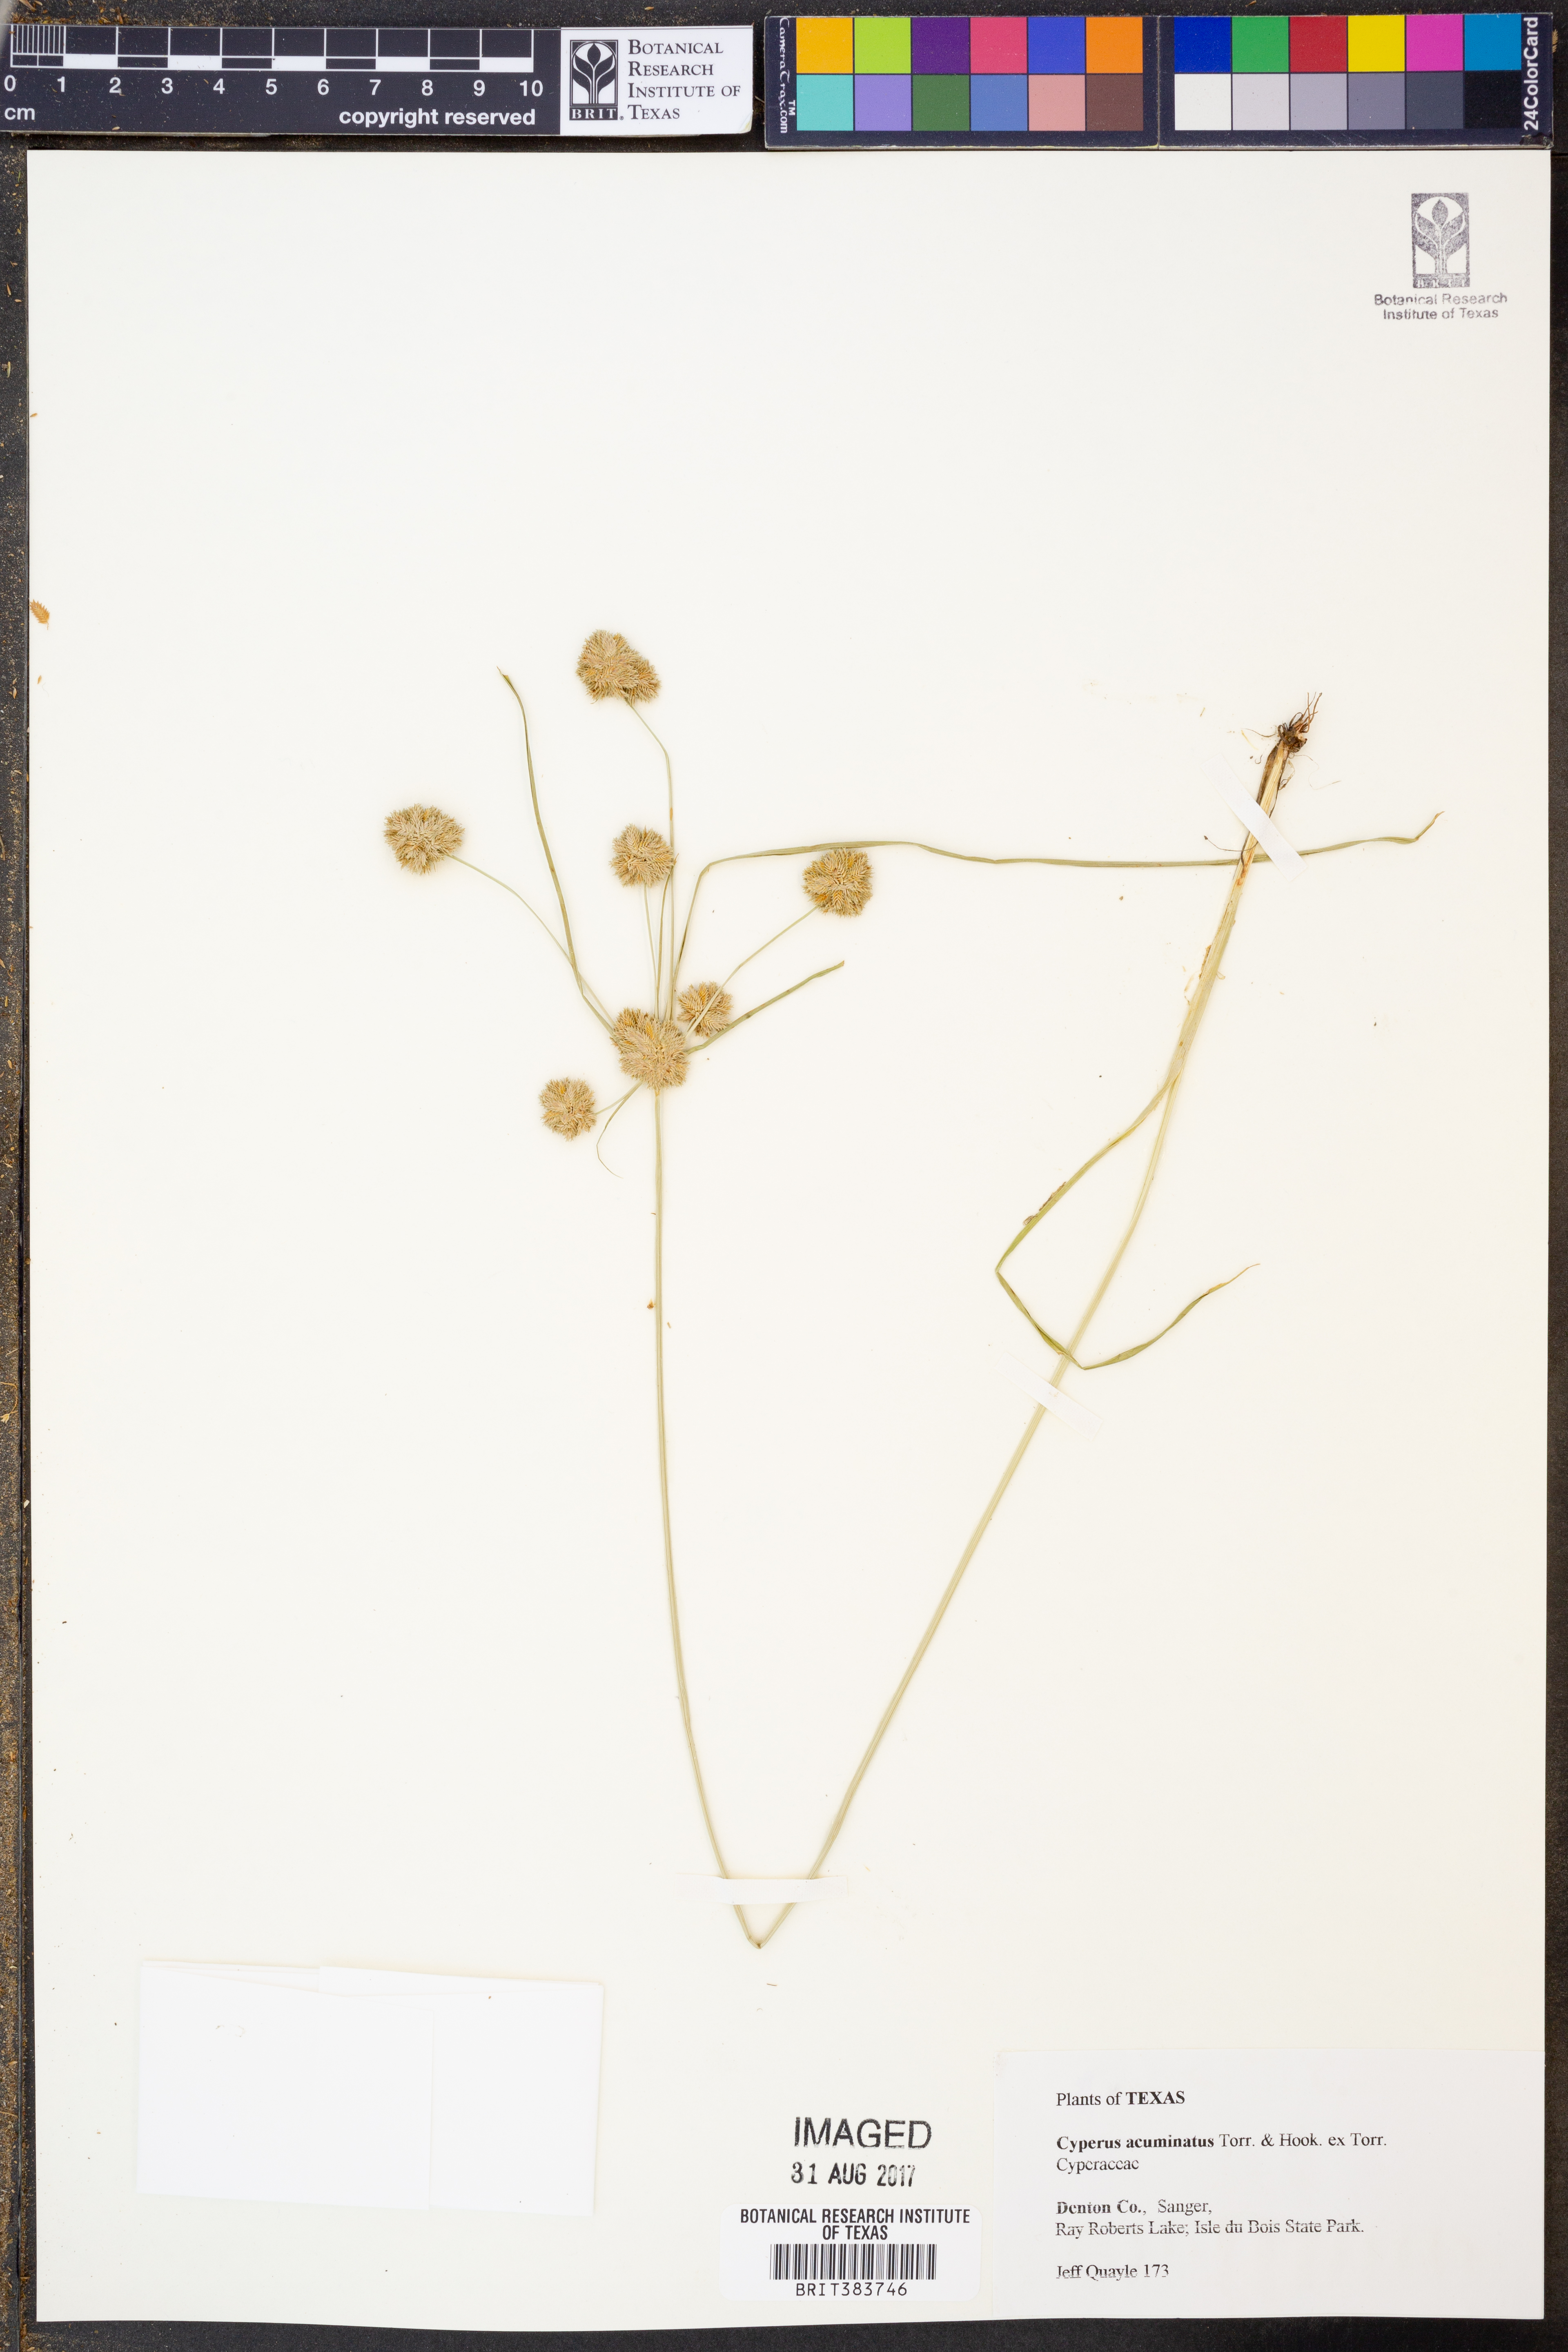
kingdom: Plantae
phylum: Tracheophyta
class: Liliopsida
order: Poales
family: Cyperaceae
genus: Cyperus
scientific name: Cyperus acuminatus
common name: Short-pointed cyperus
